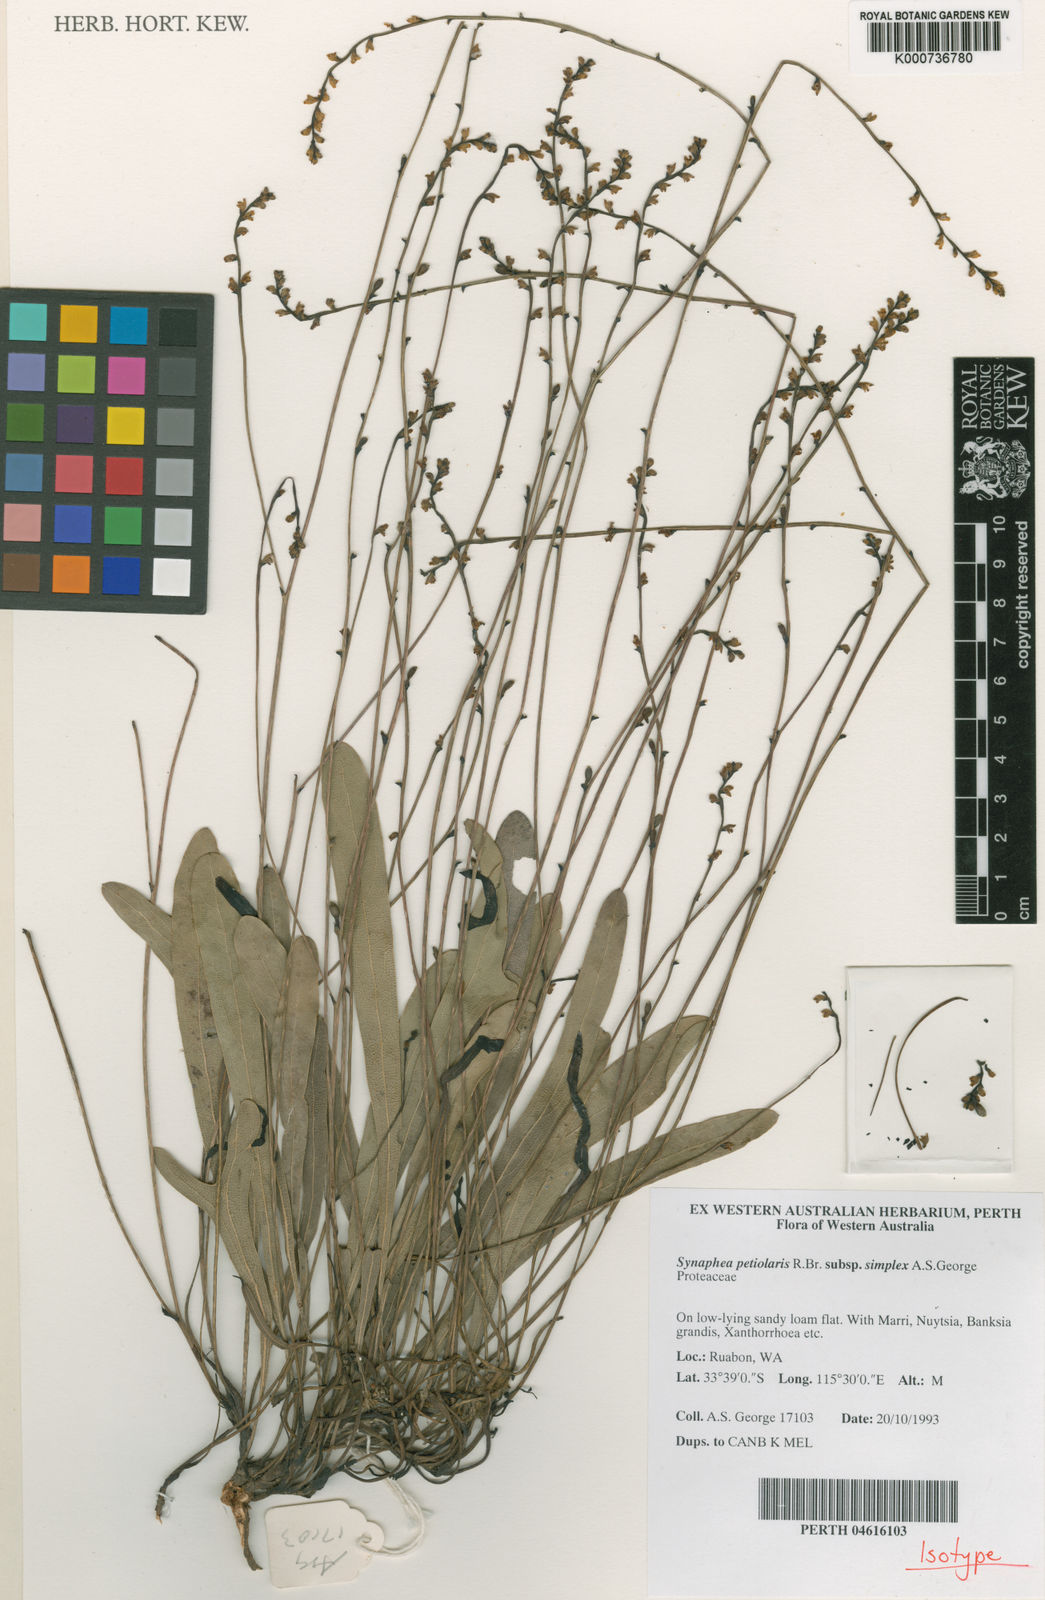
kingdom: Plantae
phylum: Tracheophyta
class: Magnoliopsida
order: Proteales
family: Proteaceae
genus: Synaphea
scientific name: Synaphea petiolaris
